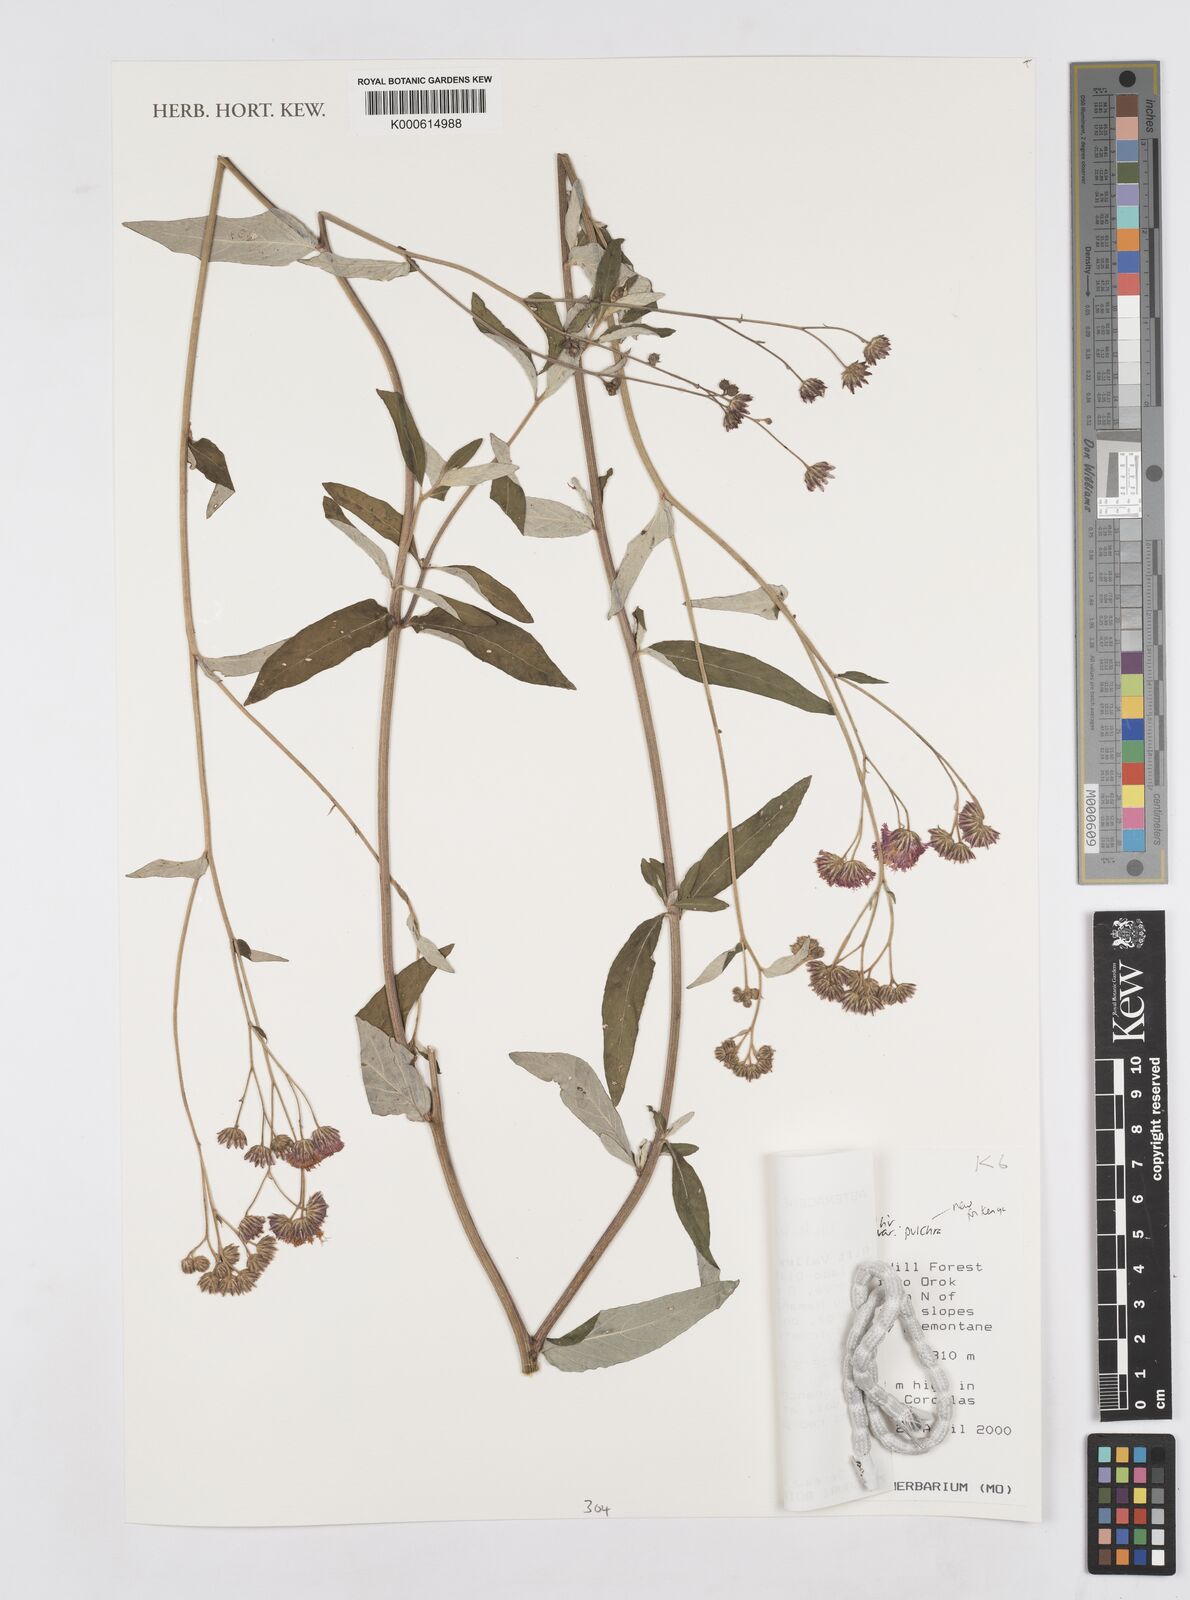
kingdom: Plantae
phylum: Tracheophyta
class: Magnoliopsida
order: Asterales
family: Asteraceae
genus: Gutenbergia
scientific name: Gutenbergia cordifolia
